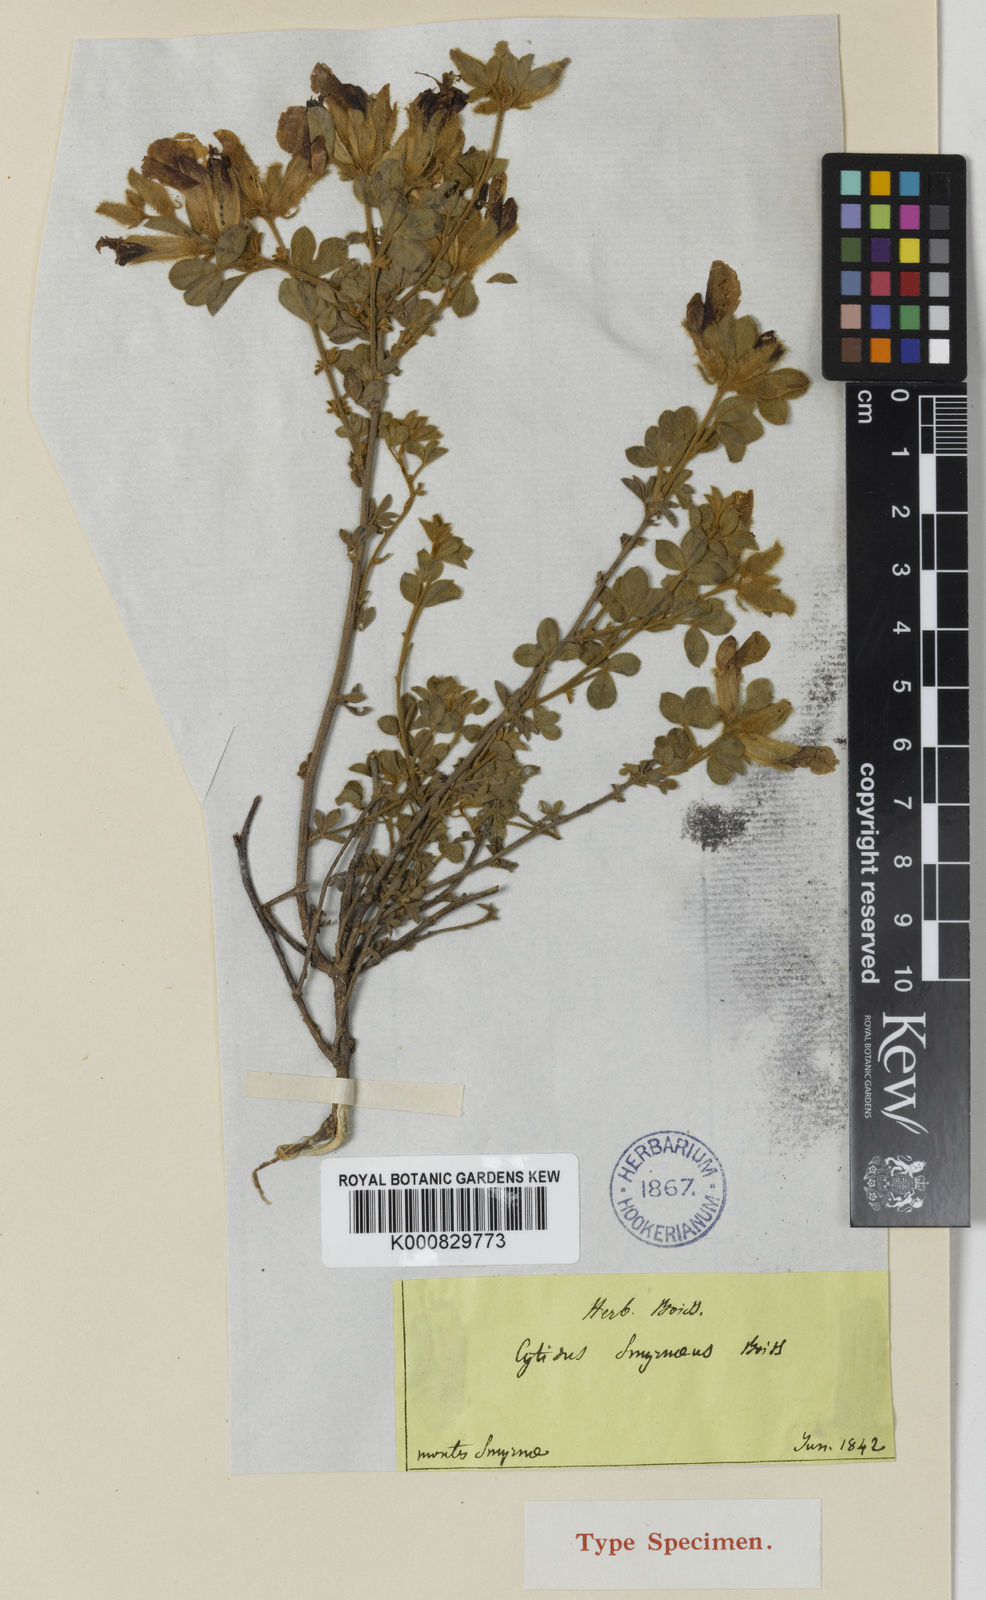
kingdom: Plantae
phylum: Tracheophyta
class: Magnoliopsida
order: Fabales
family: Fabaceae
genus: Chamaecytisus
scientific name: Chamaecytisus eriocarpus
